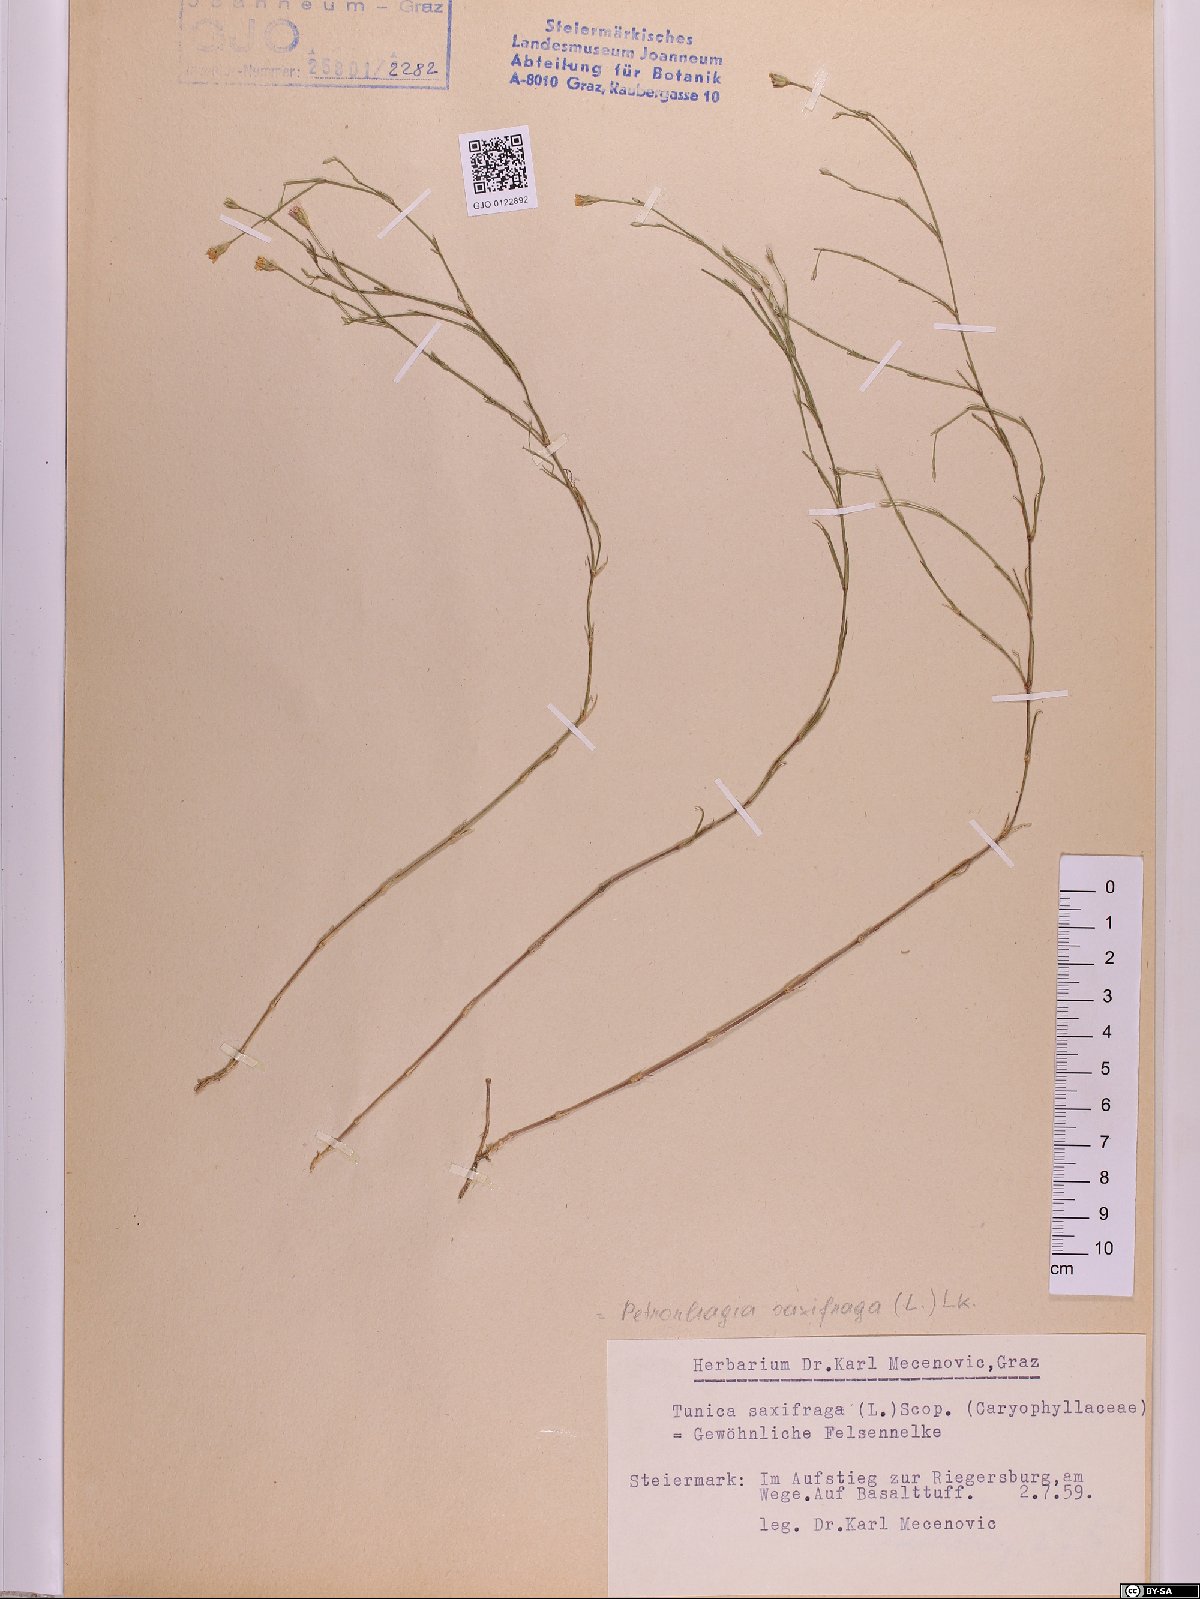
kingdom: Plantae
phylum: Tracheophyta
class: Magnoliopsida
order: Caryophyllales
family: Caryophyllaceae
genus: Petrorhagia
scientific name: Petrorhagia saxifraga
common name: Tunicflower
